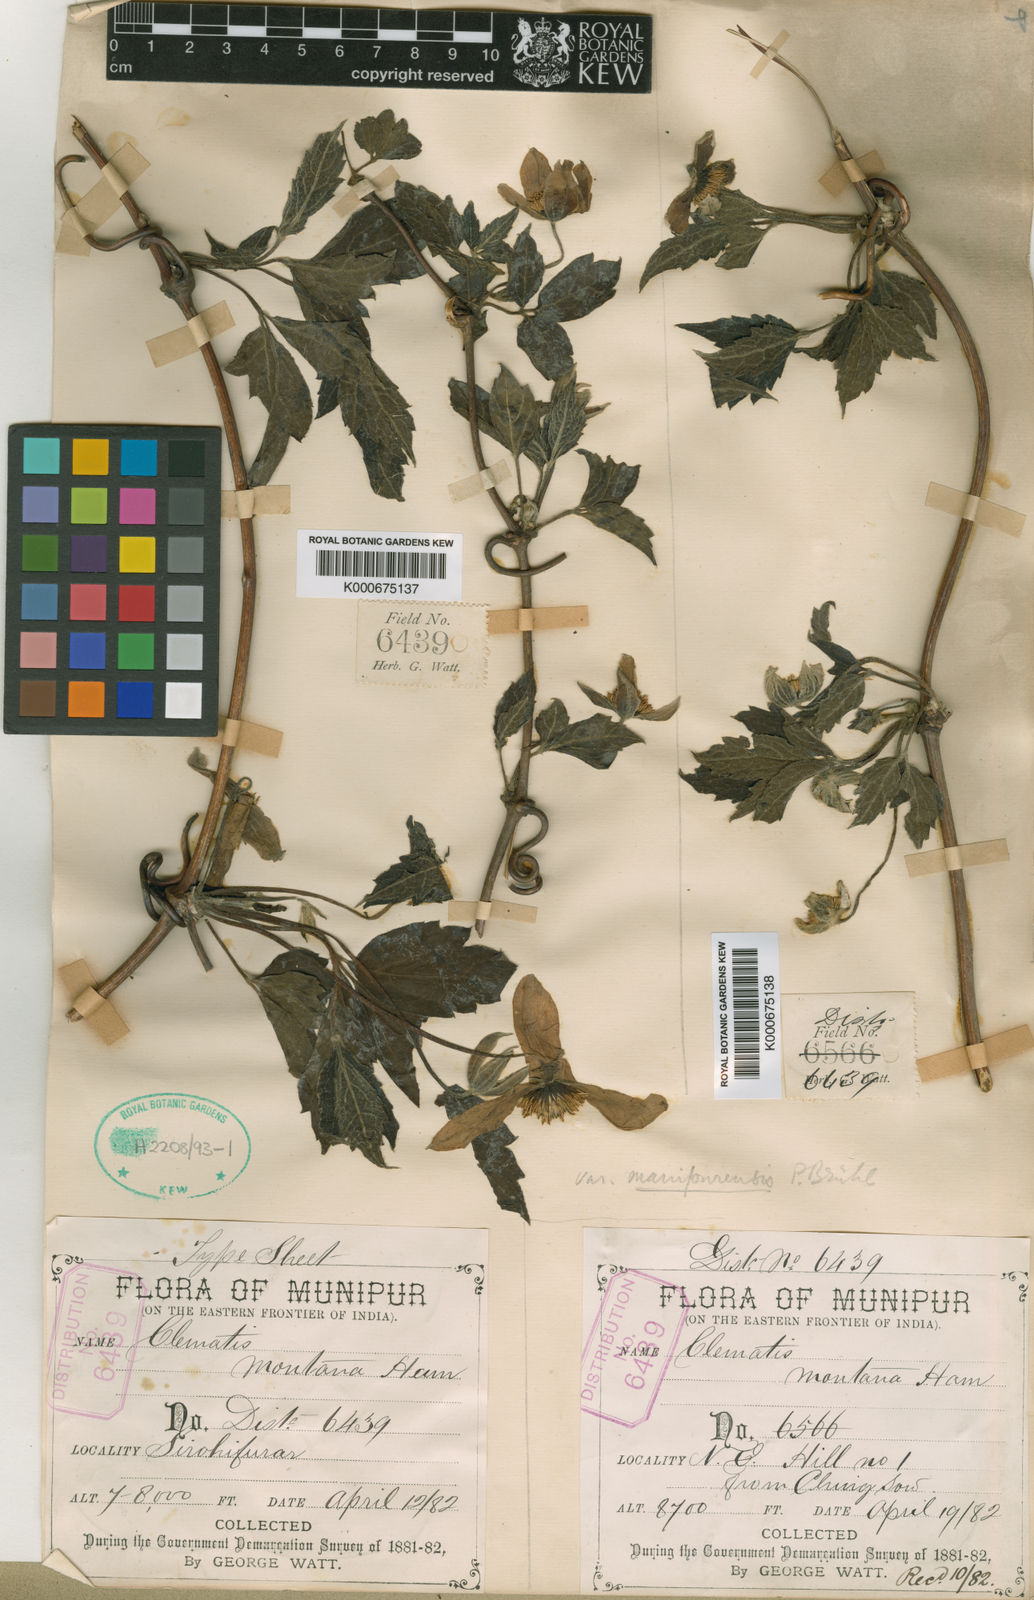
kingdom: Plantae
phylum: Tracheophyta
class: Magnoliopsida
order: Ranunculales
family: Ranunculaceae
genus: Clematis
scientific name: Clematis montana
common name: Himalayan clematis
